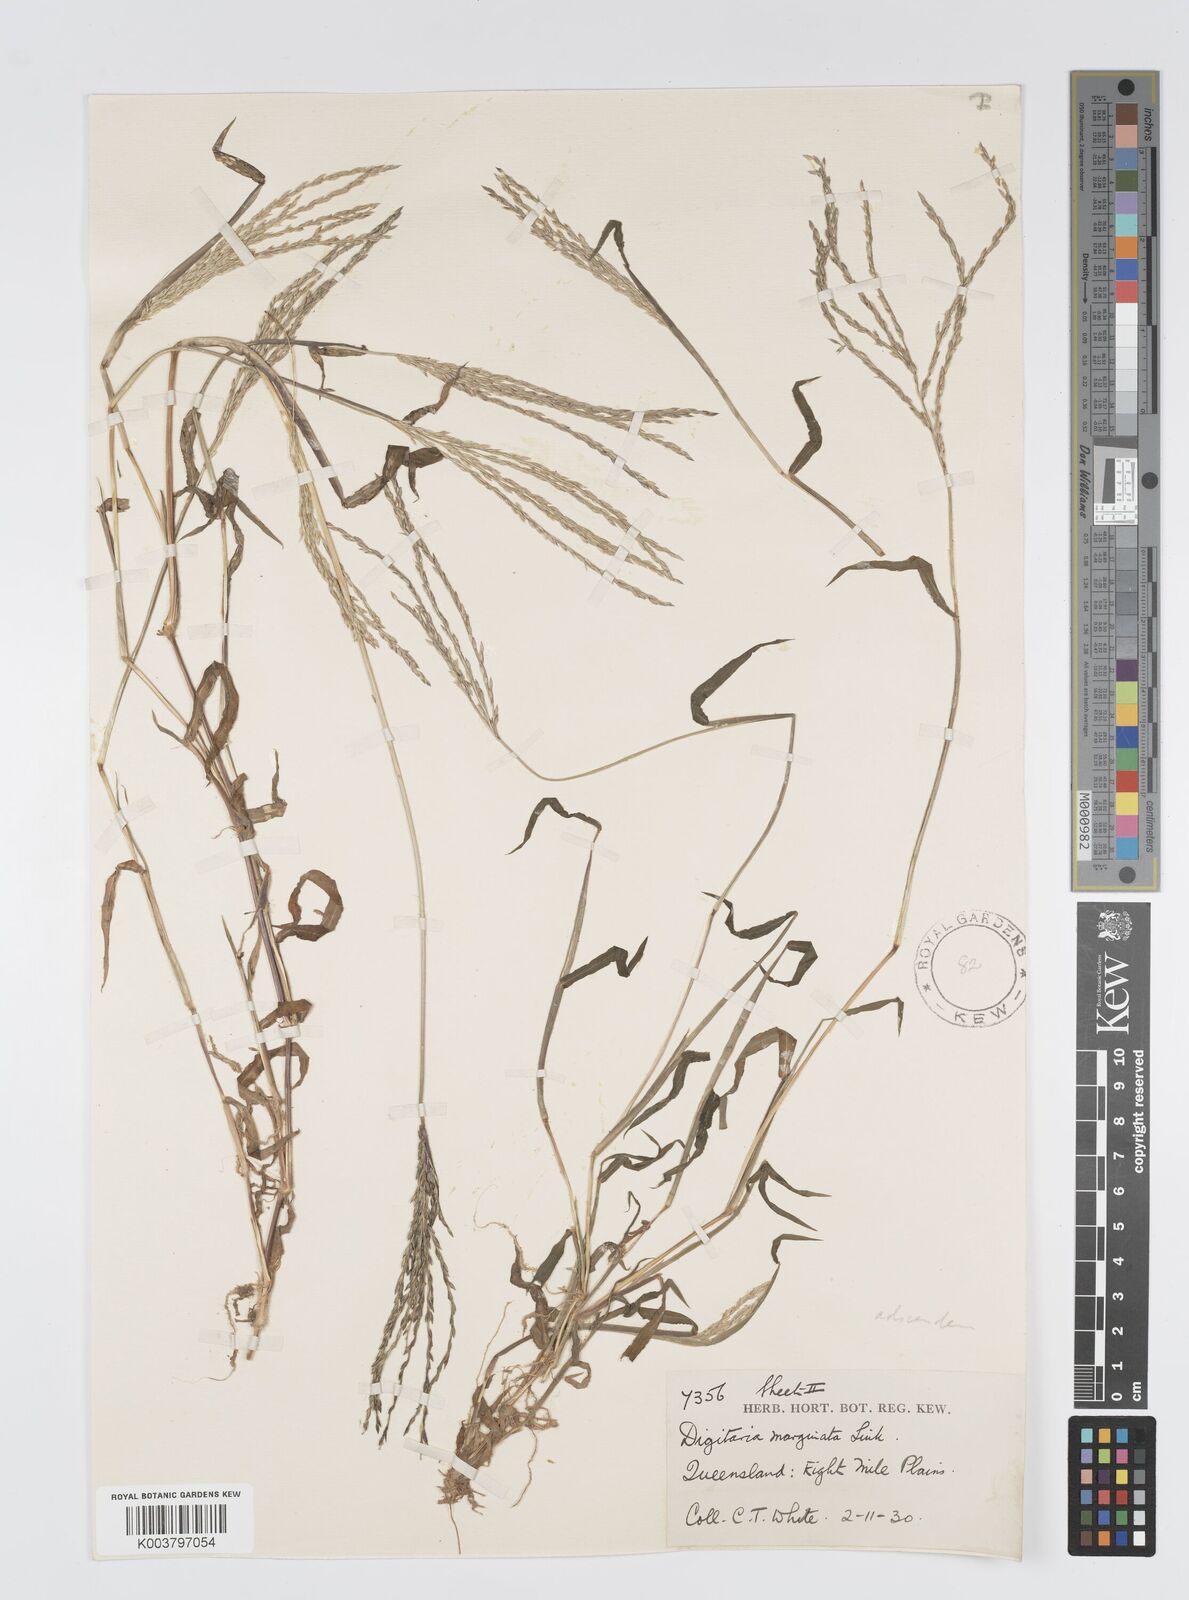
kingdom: Plantae
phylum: Tracheophyta
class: Liliopsida
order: Poales
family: Poaceae
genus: Digitaria
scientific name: Digitaria ciliaris
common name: Tropical finger-grass
